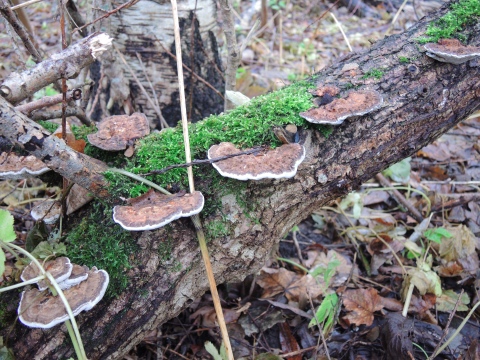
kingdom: Fungi
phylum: Basidiomycota
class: Agaricomycetes
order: Polyporales
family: Polyporaceae
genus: Daedaleopsis
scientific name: Daedaleopsis confragosa
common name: rødmende læderporesvamp
